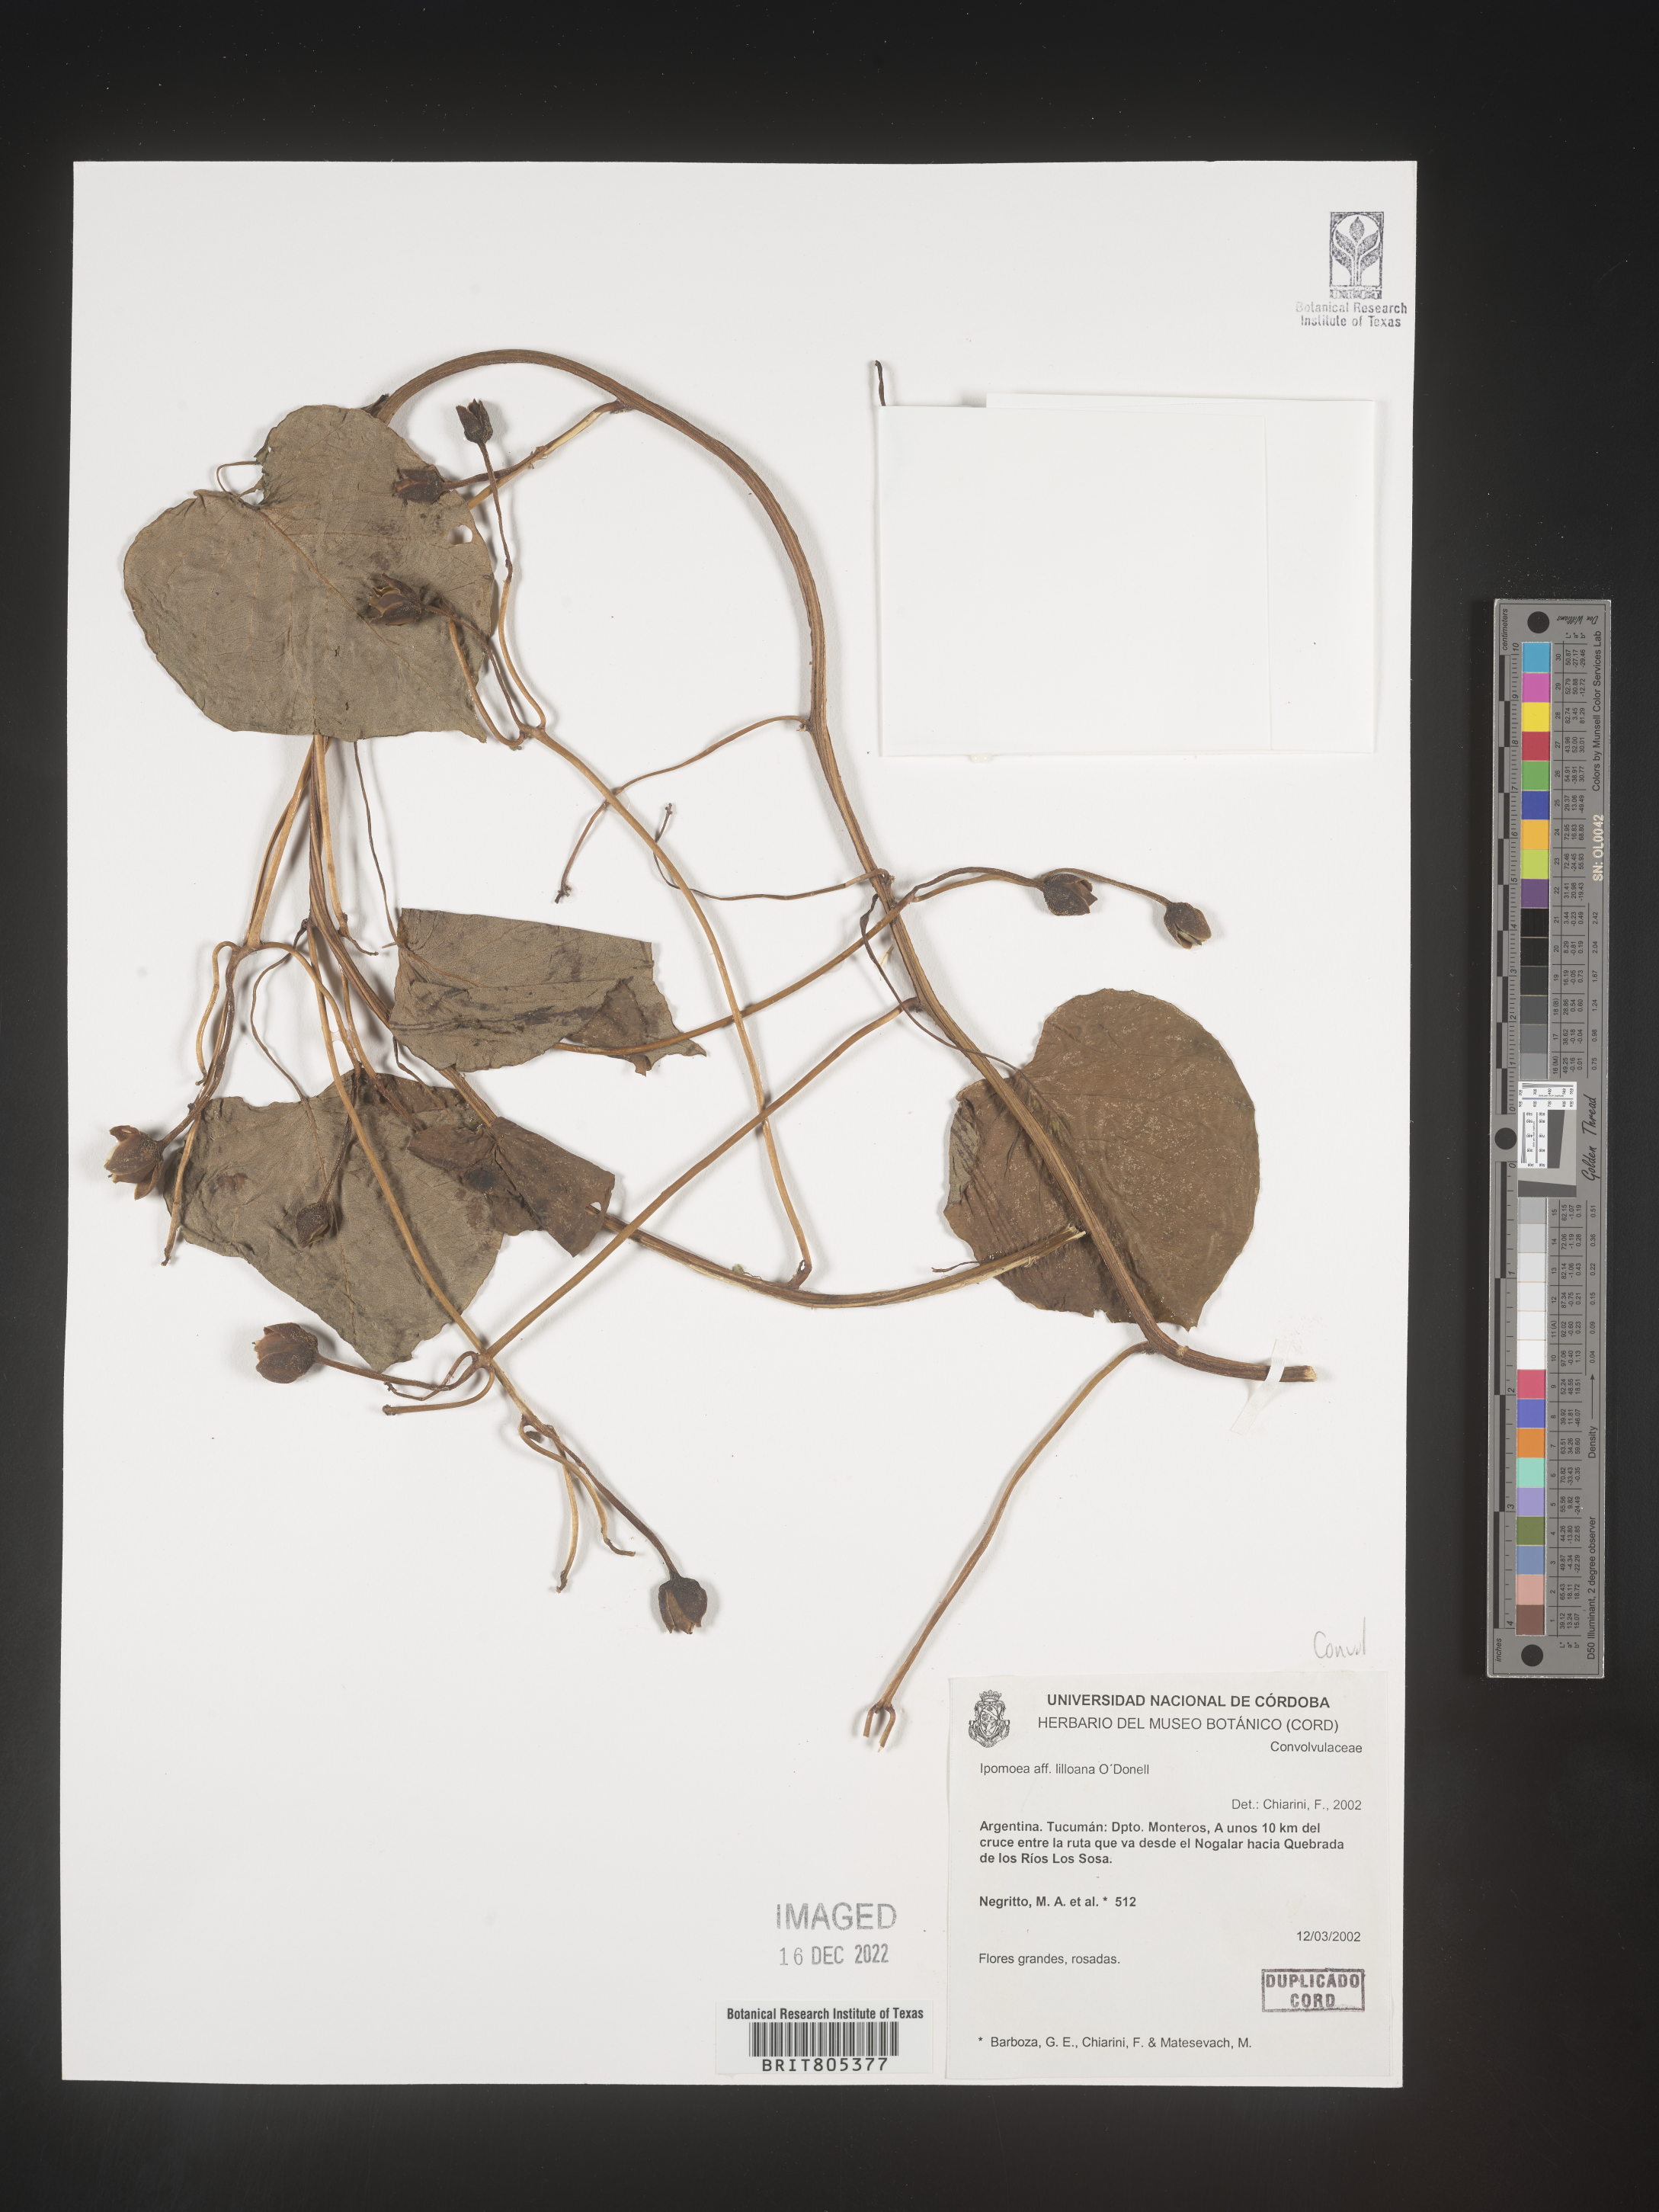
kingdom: Plantae
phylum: Tracheophyta
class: Magnoliopsida
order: Solanales
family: Convolvulaceae
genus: Ipomoea
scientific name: Ipomoea
